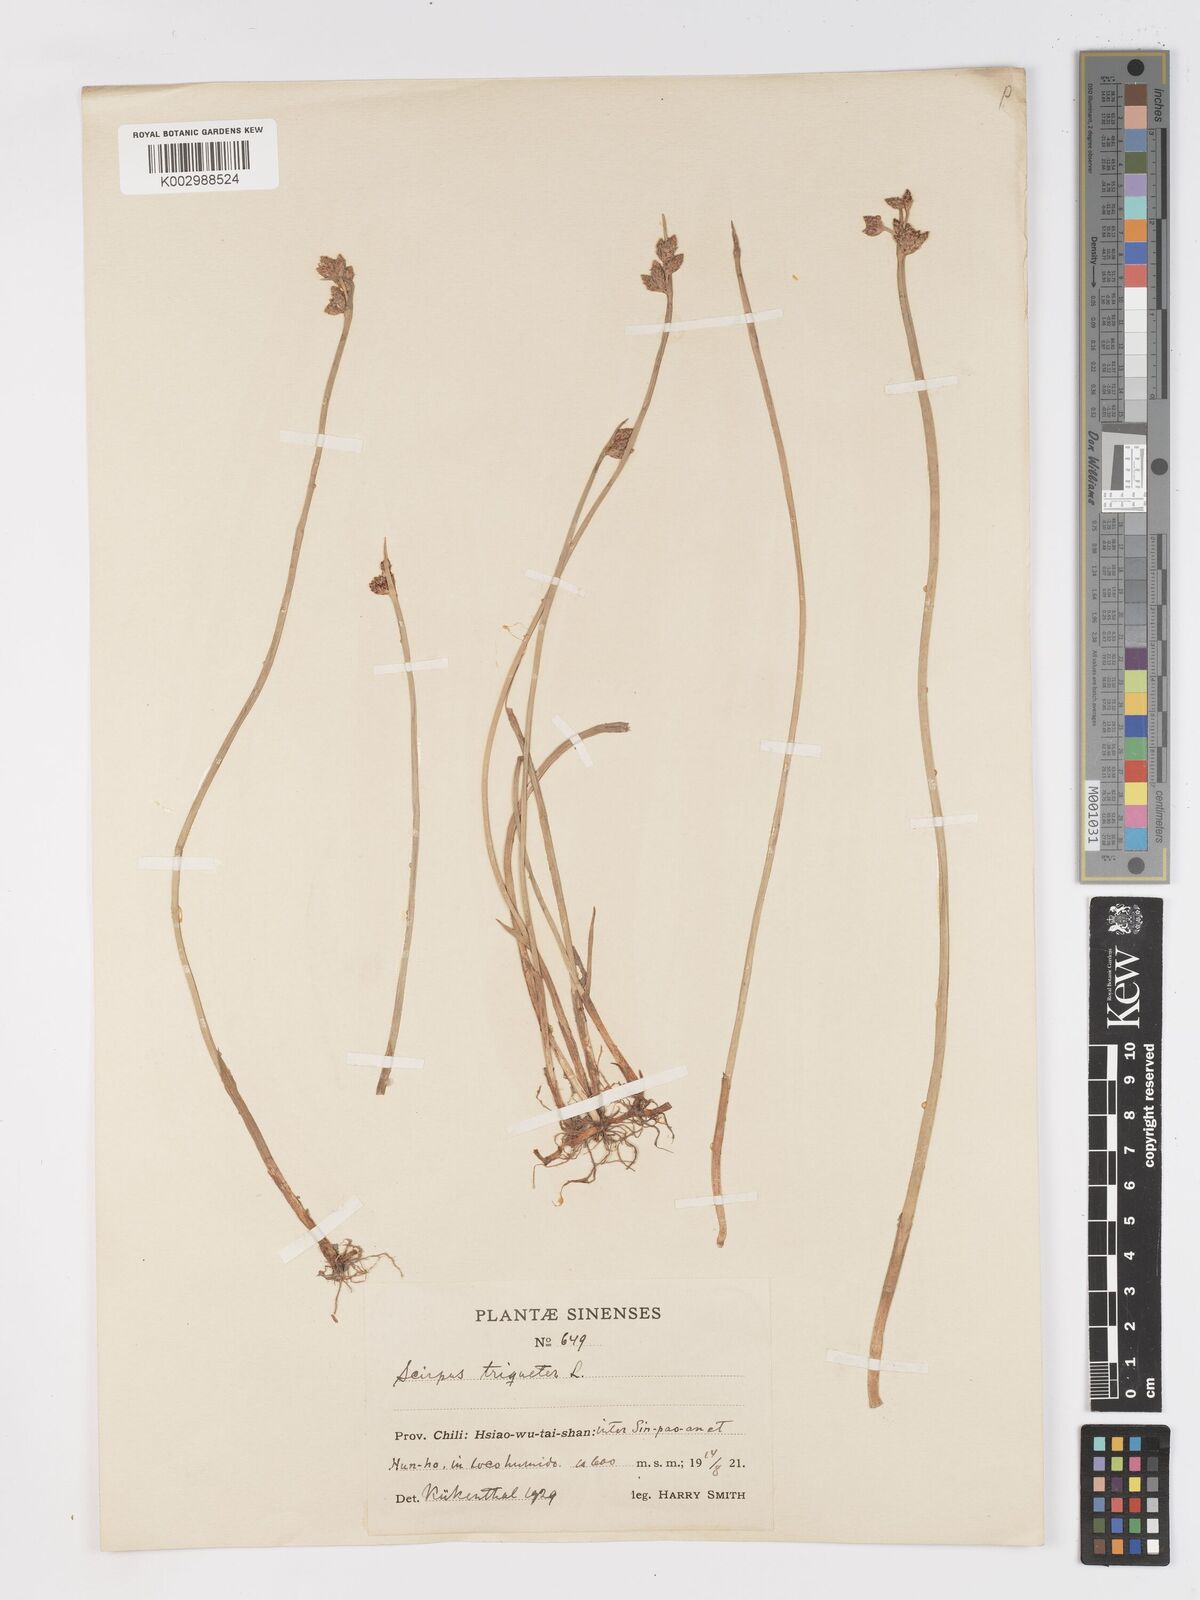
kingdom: Plantae
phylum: Tracheophyta
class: Liliopsida
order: Poales
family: Cyperaceae
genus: Schoenoplectus
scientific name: Schoenoplectus triqueter
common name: Triangular club-rush
